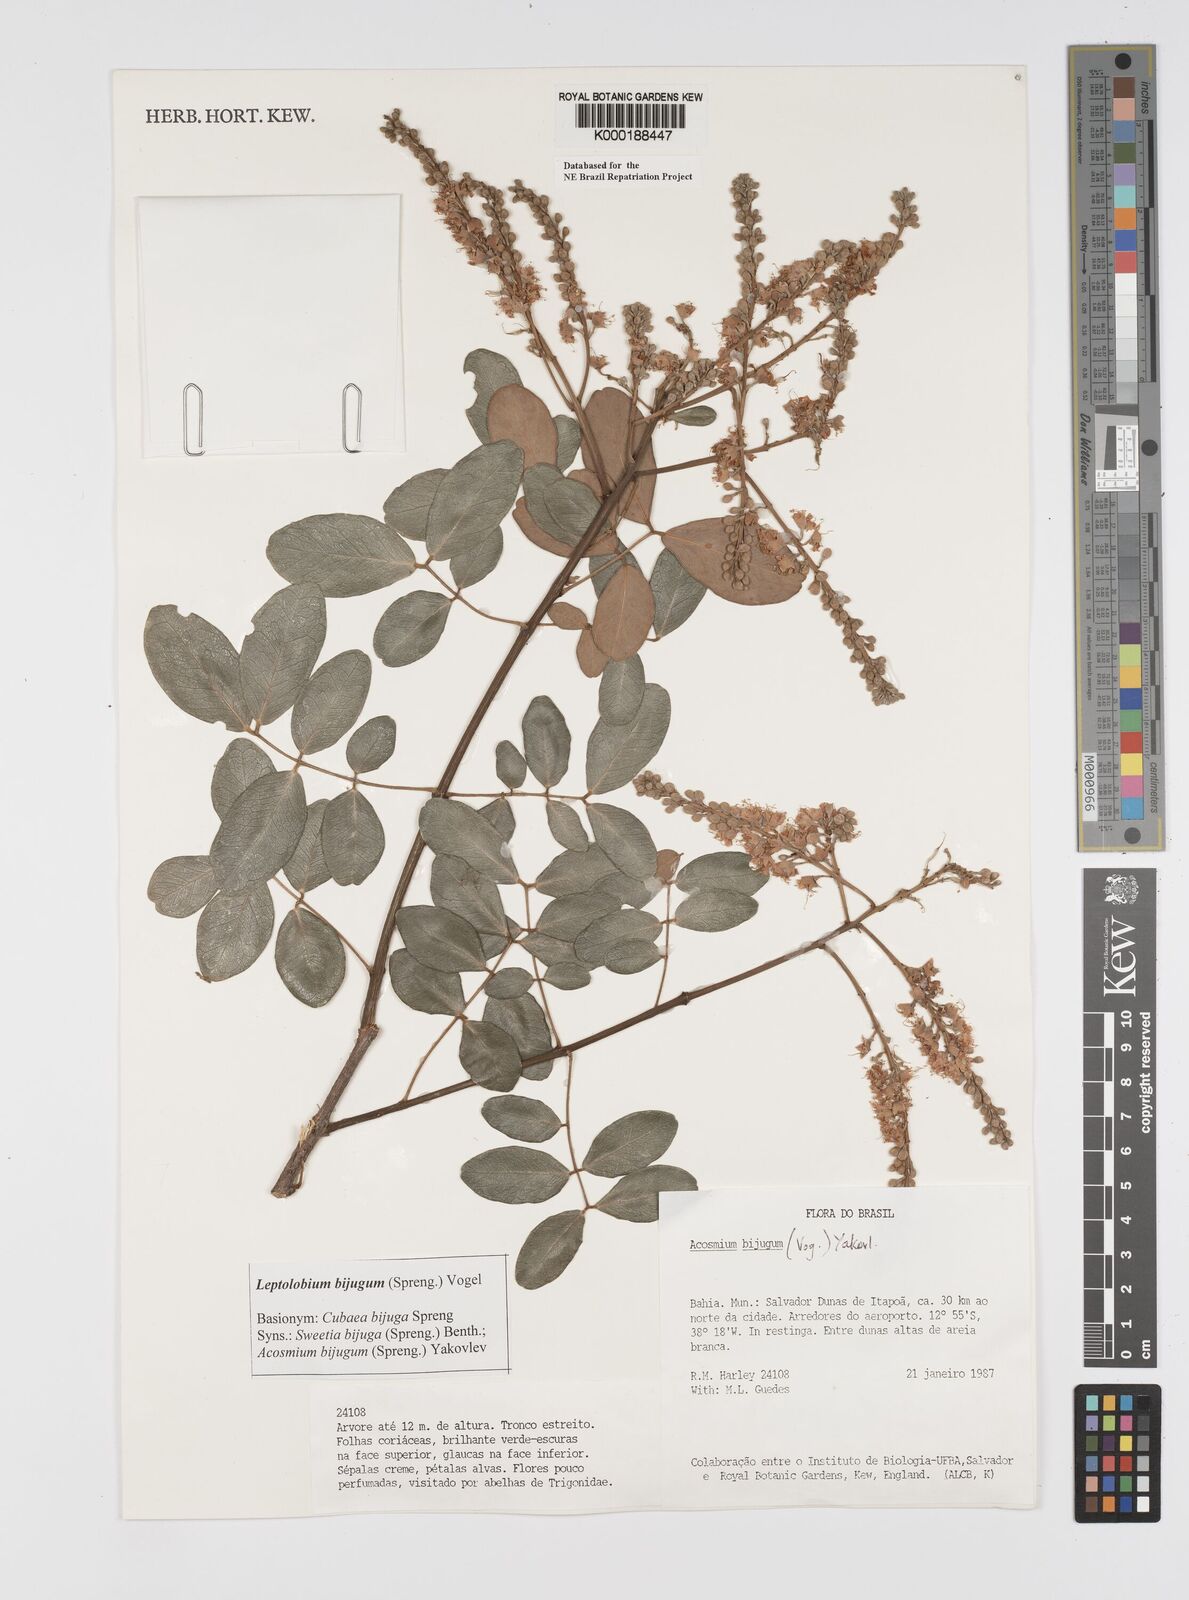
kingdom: Plantae
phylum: Tracheophyta
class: Magnoliopsida
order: Fabales
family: Fabaceae
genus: Leptolobium
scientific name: Leptolobium bijugum
